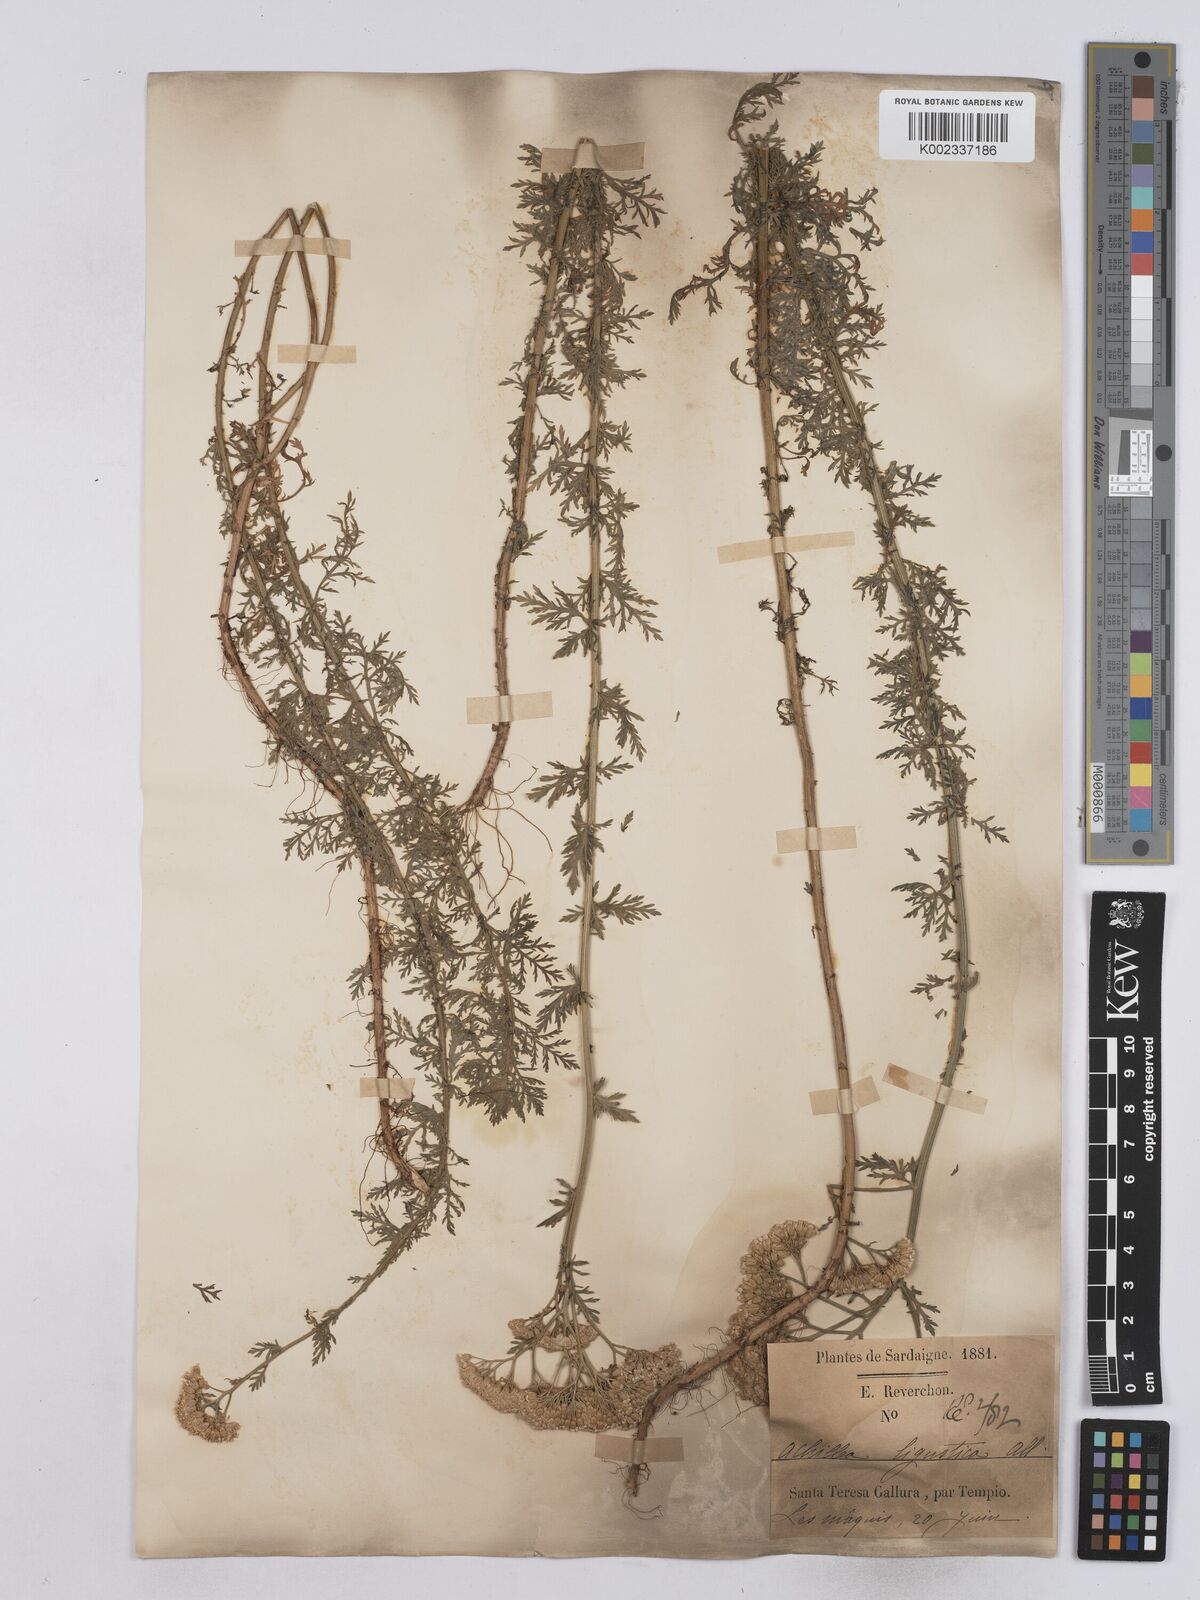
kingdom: Plantae
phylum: Tracheophyta
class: Magnoliopsida
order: Asterales
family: Asteraceae
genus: Achillea
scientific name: Achillea ligustica
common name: Southern yarrow
